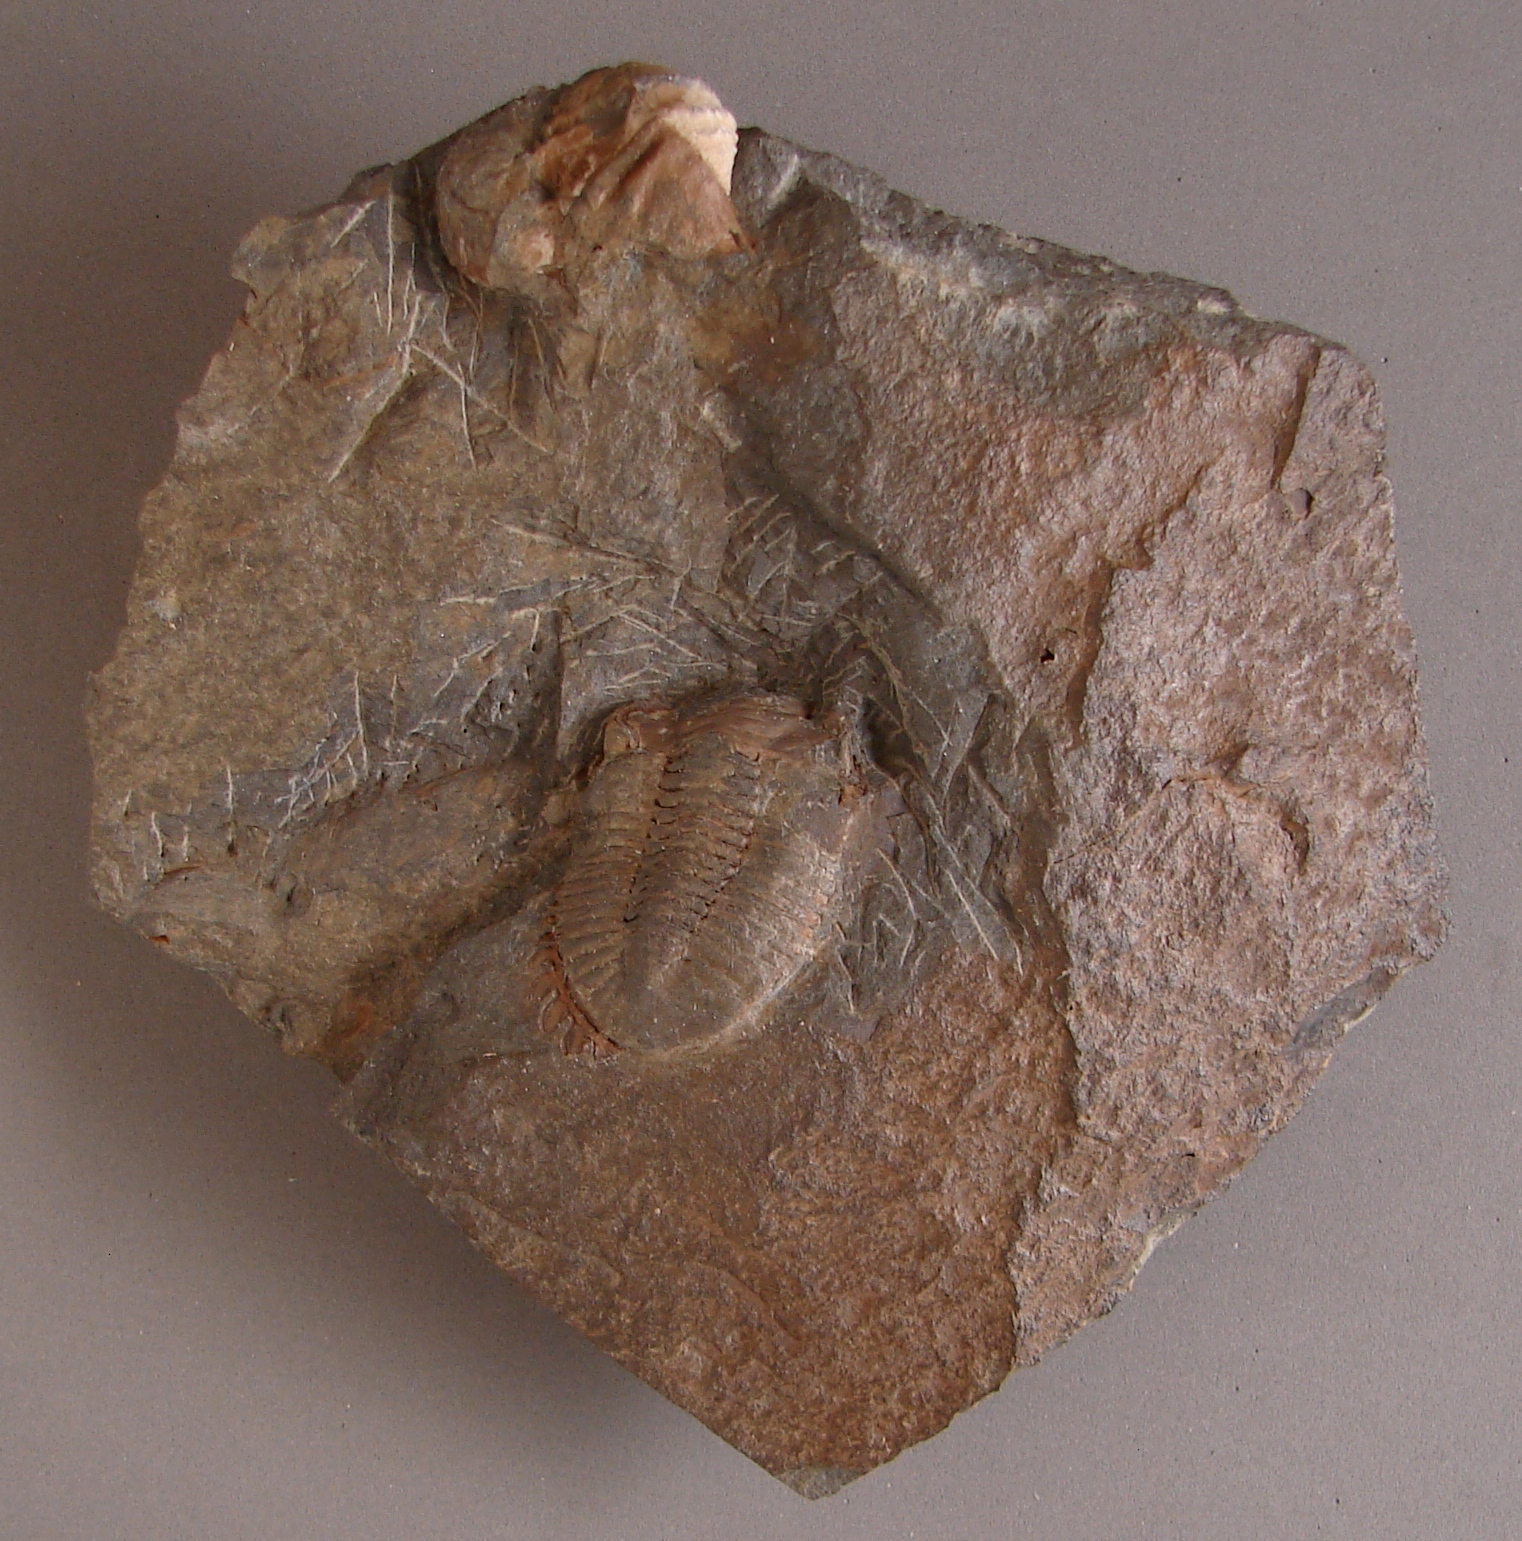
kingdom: Animalia
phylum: Arthropoda
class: Trilobita
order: Phacopida
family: Acastidae
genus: Rhenops
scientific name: Rhenops
